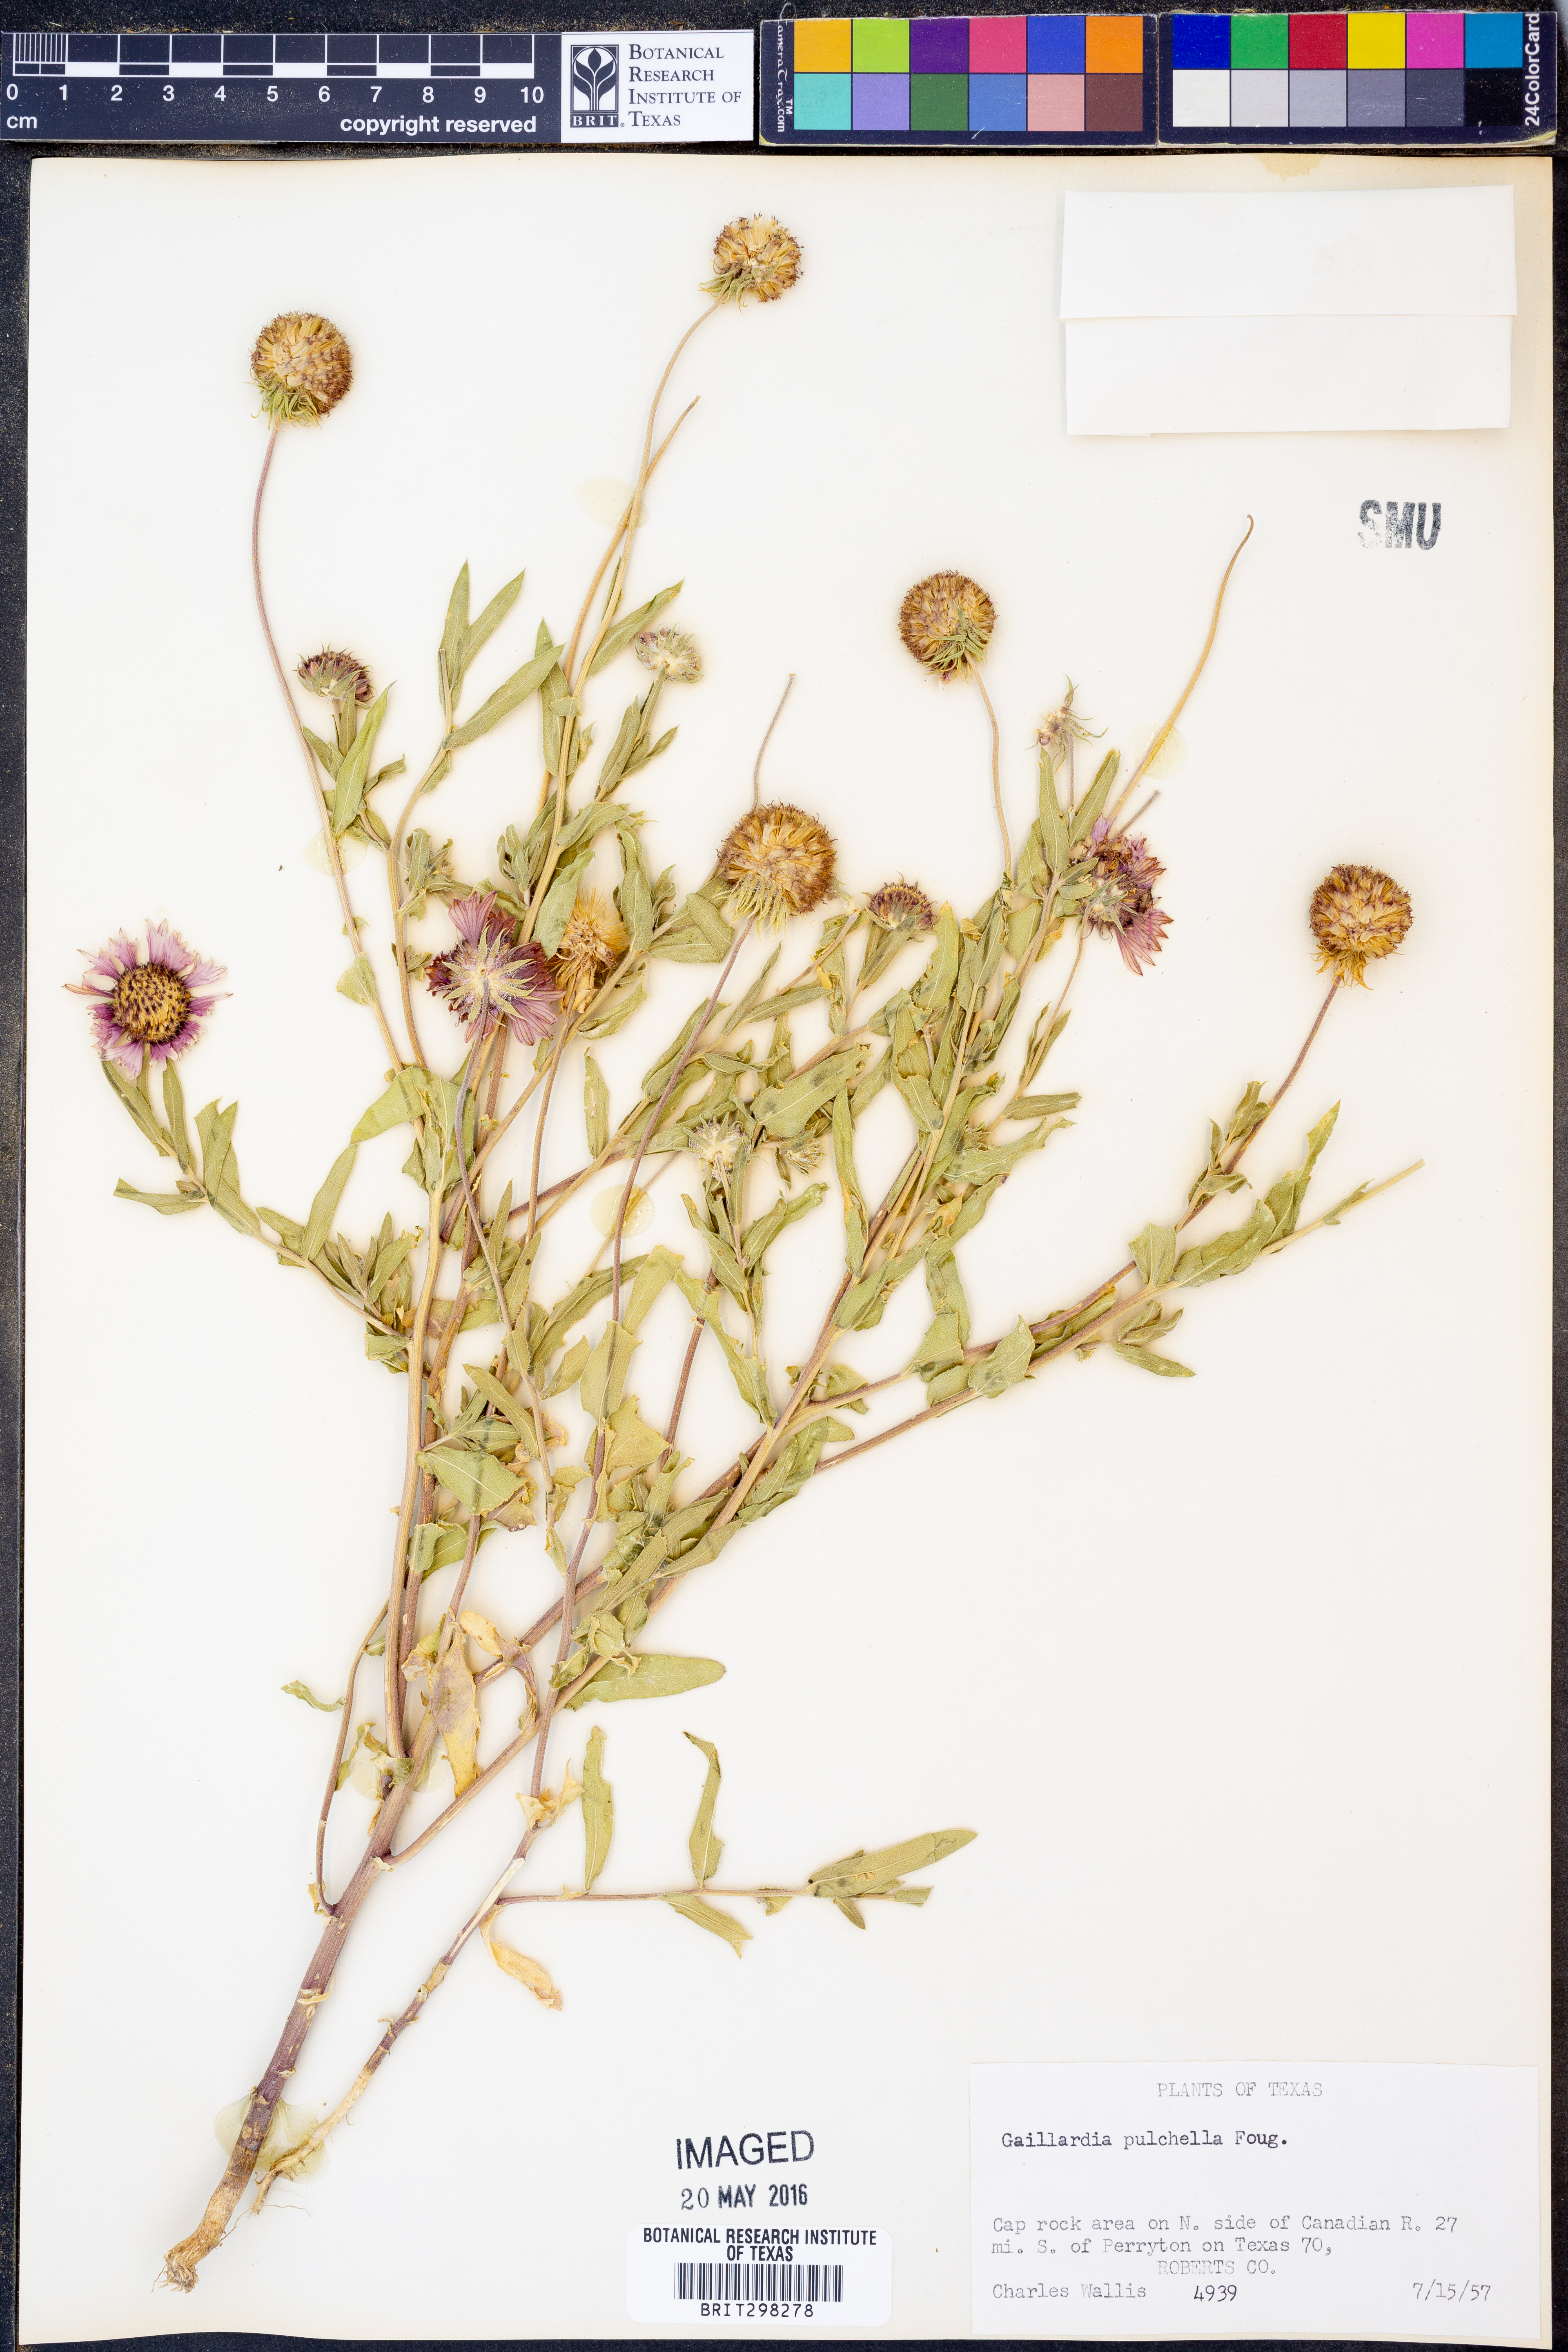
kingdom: Plantae
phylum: Tracheophyta
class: Magnoliopsida
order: Asterales
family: Asteraceae
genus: Gaillardia
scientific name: Gaillardia pulchella
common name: Firewheel
